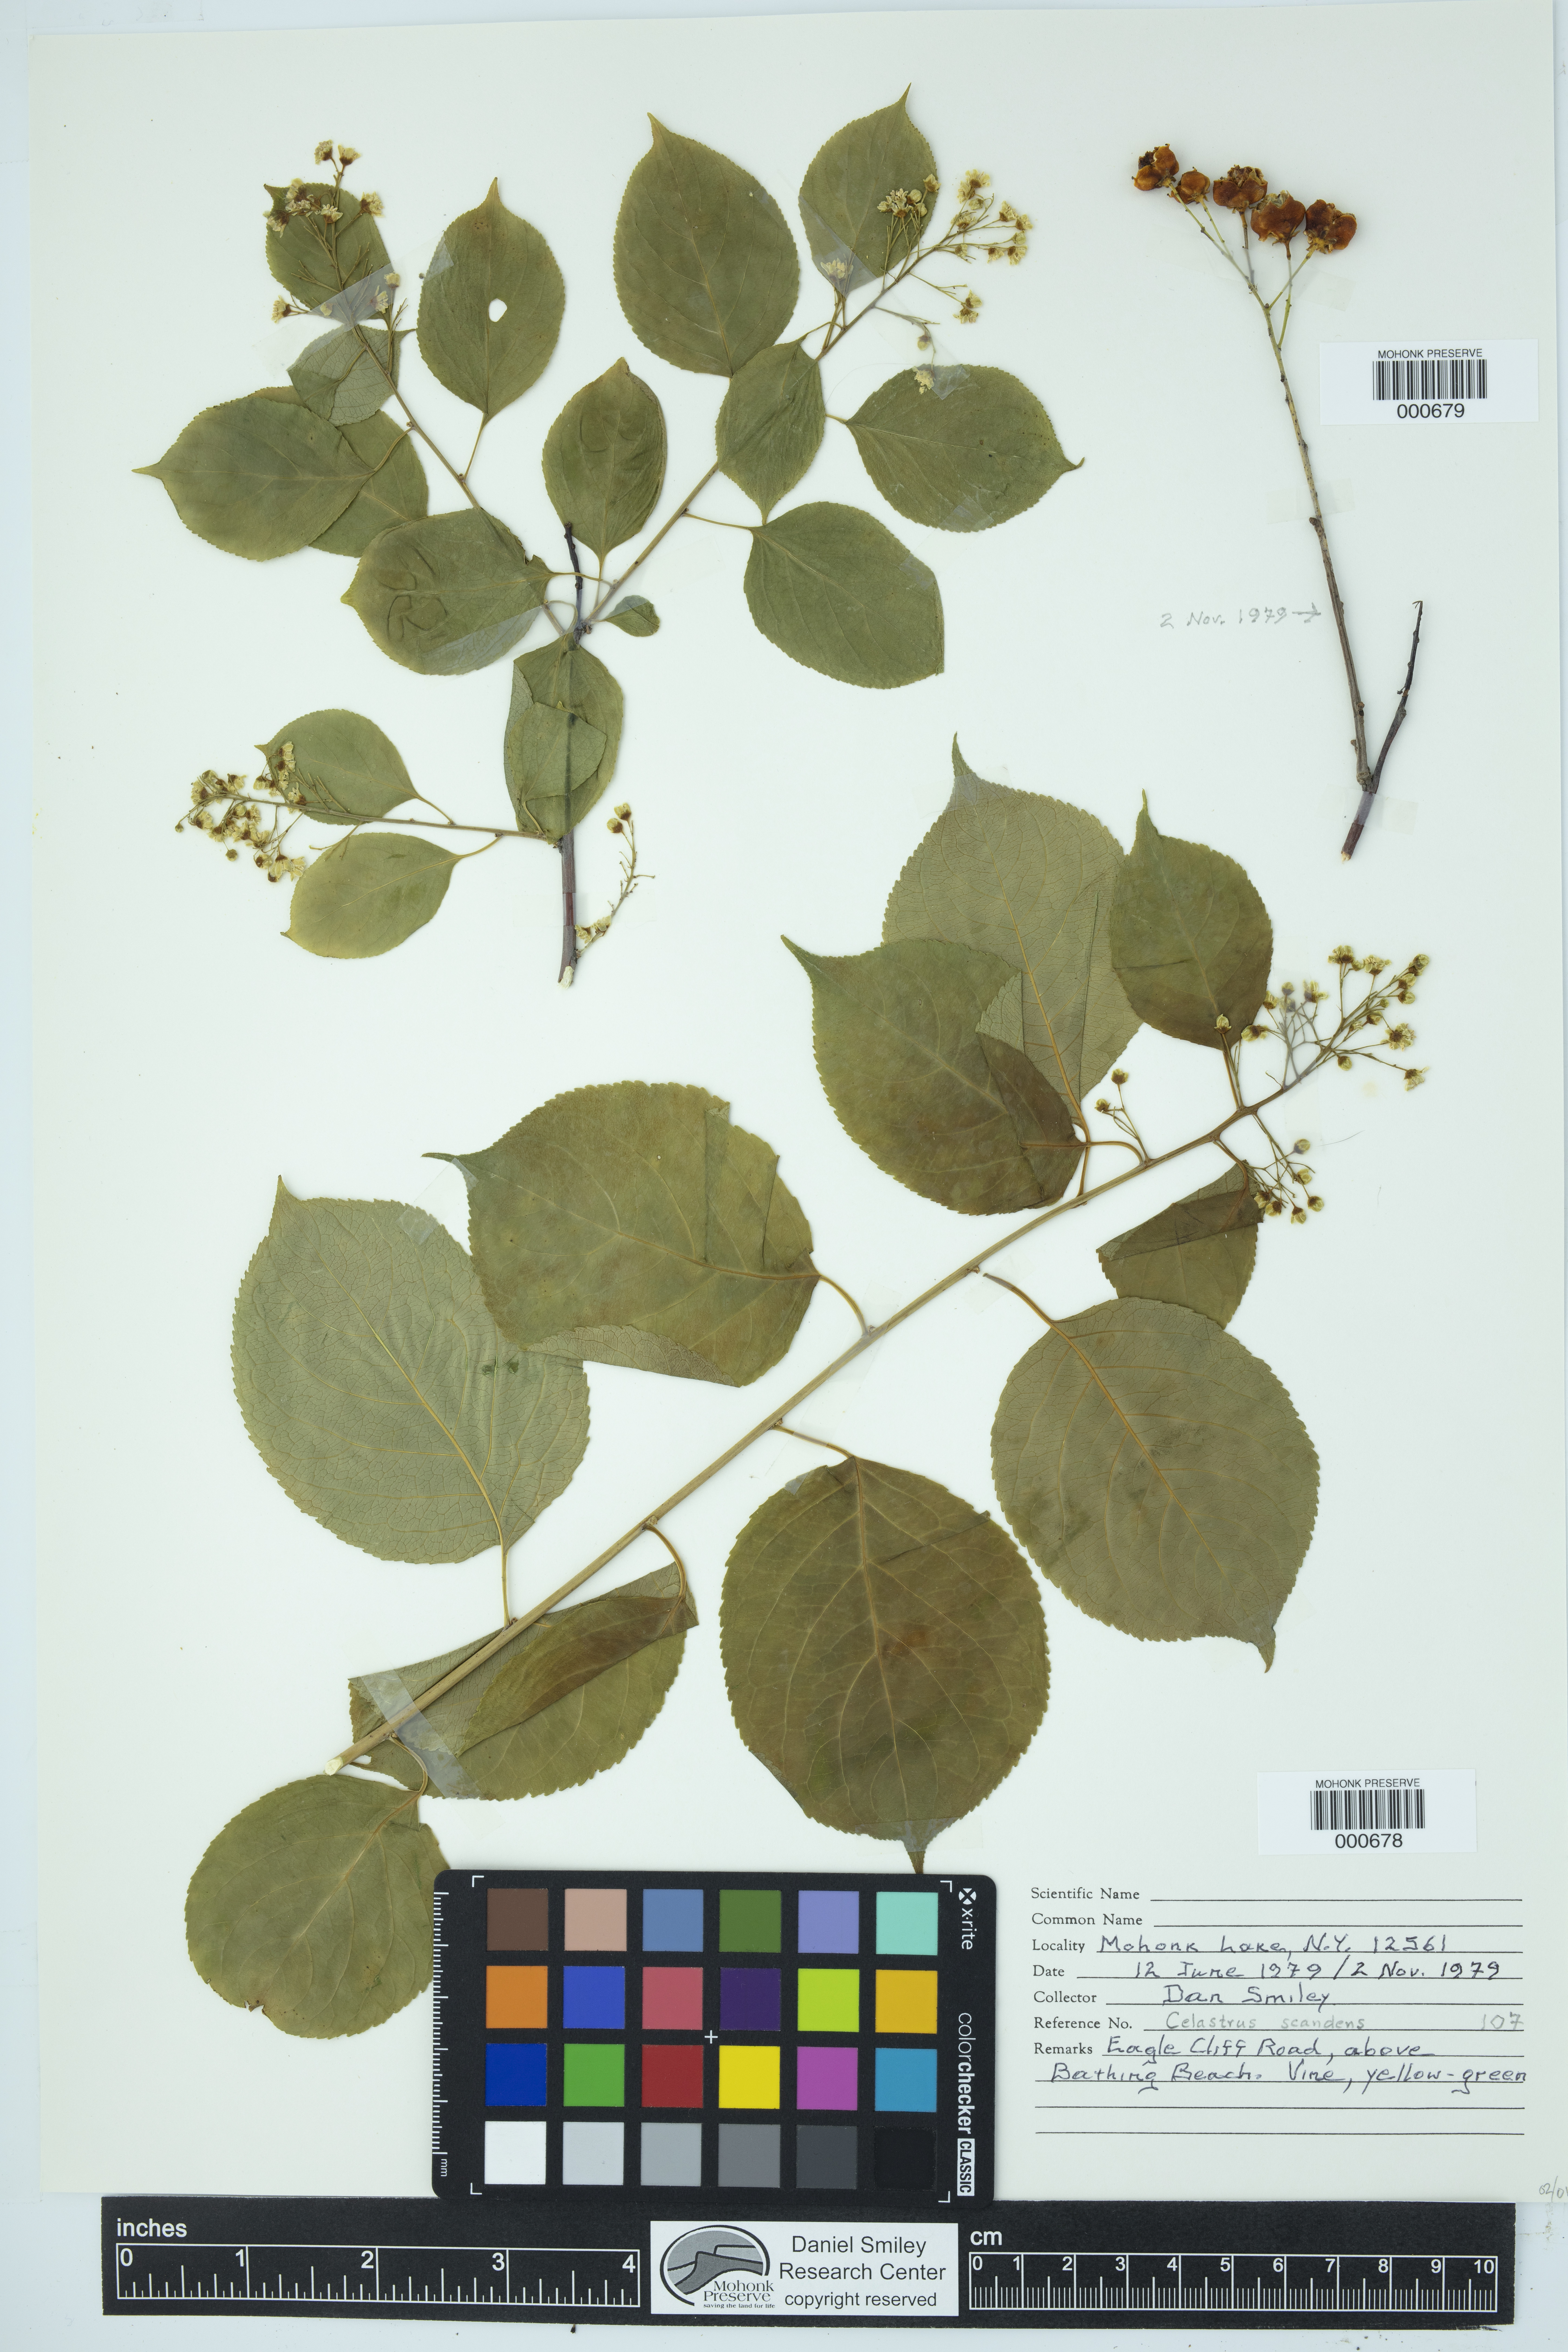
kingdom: Plantae
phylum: Tracheophyta
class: Magnoliopsida
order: Celastrales
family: Celastraceae
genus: Celastrus
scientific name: Celastrus scandens
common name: American bittersweet
